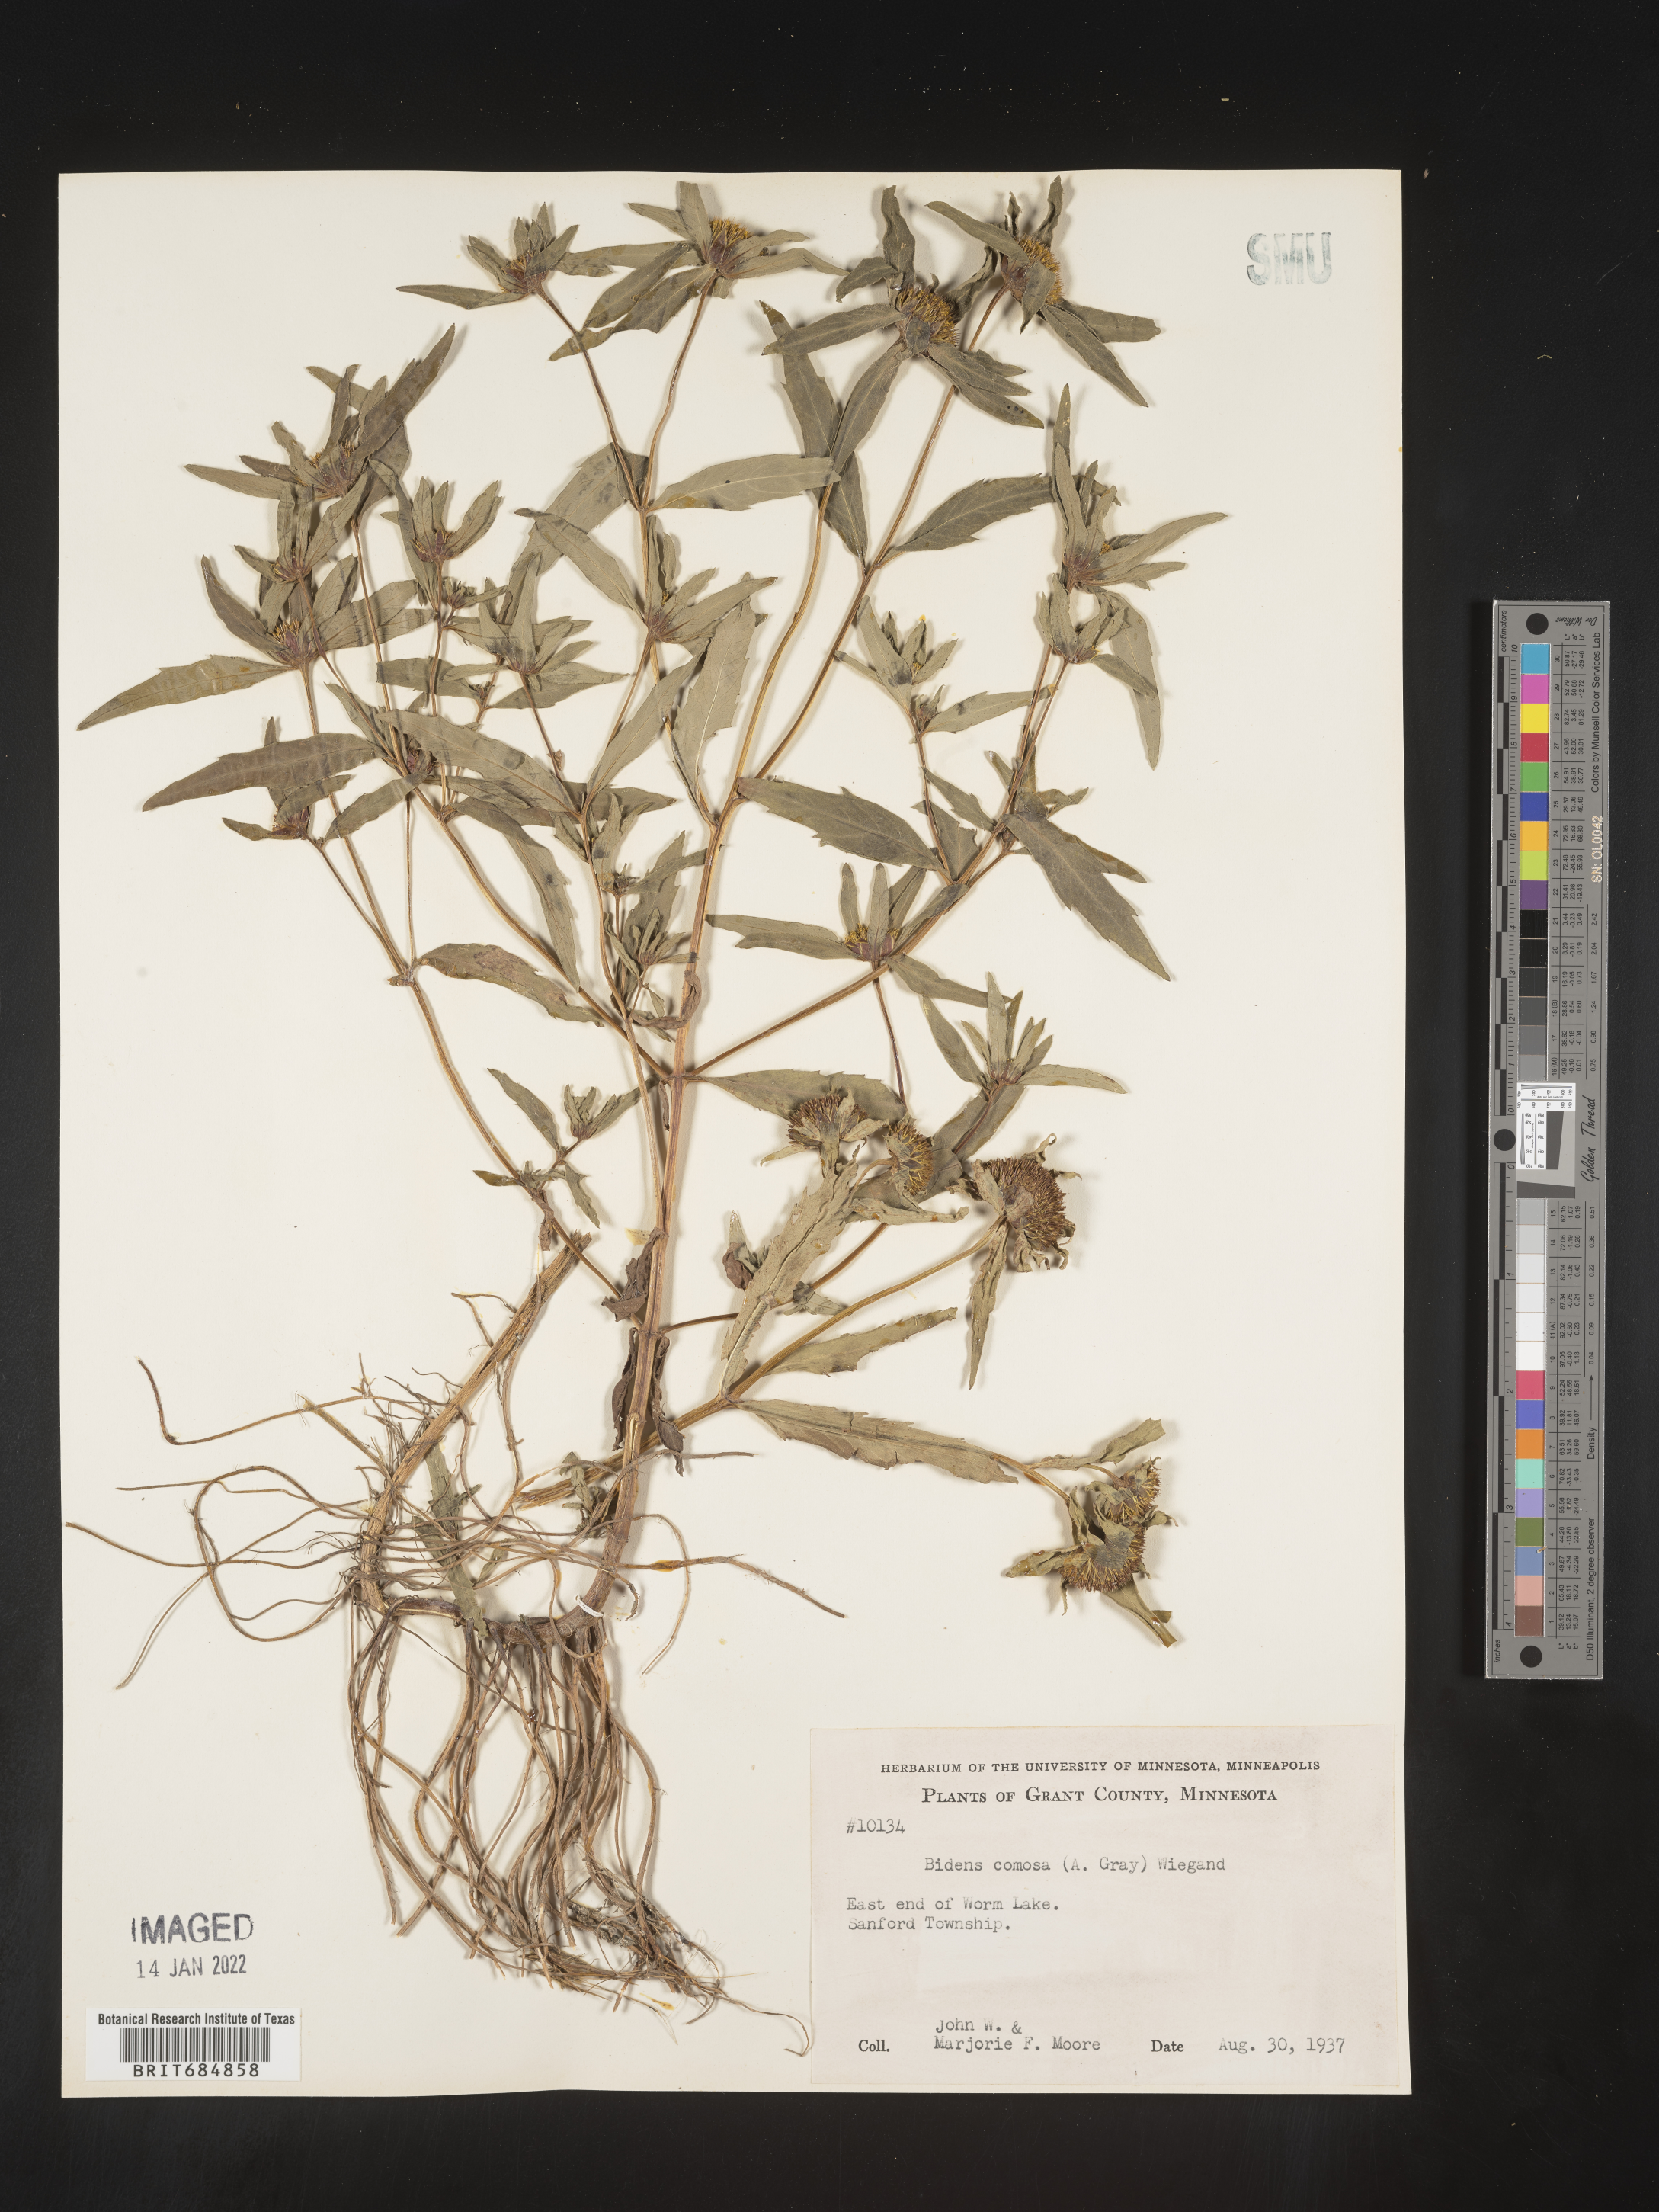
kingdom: Plantae
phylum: Tracheophyta
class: Magnoliopsida
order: Asterales
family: Asteraceae
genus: Bidens
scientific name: Bidens tripartita
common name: Trifid bur-marigold
